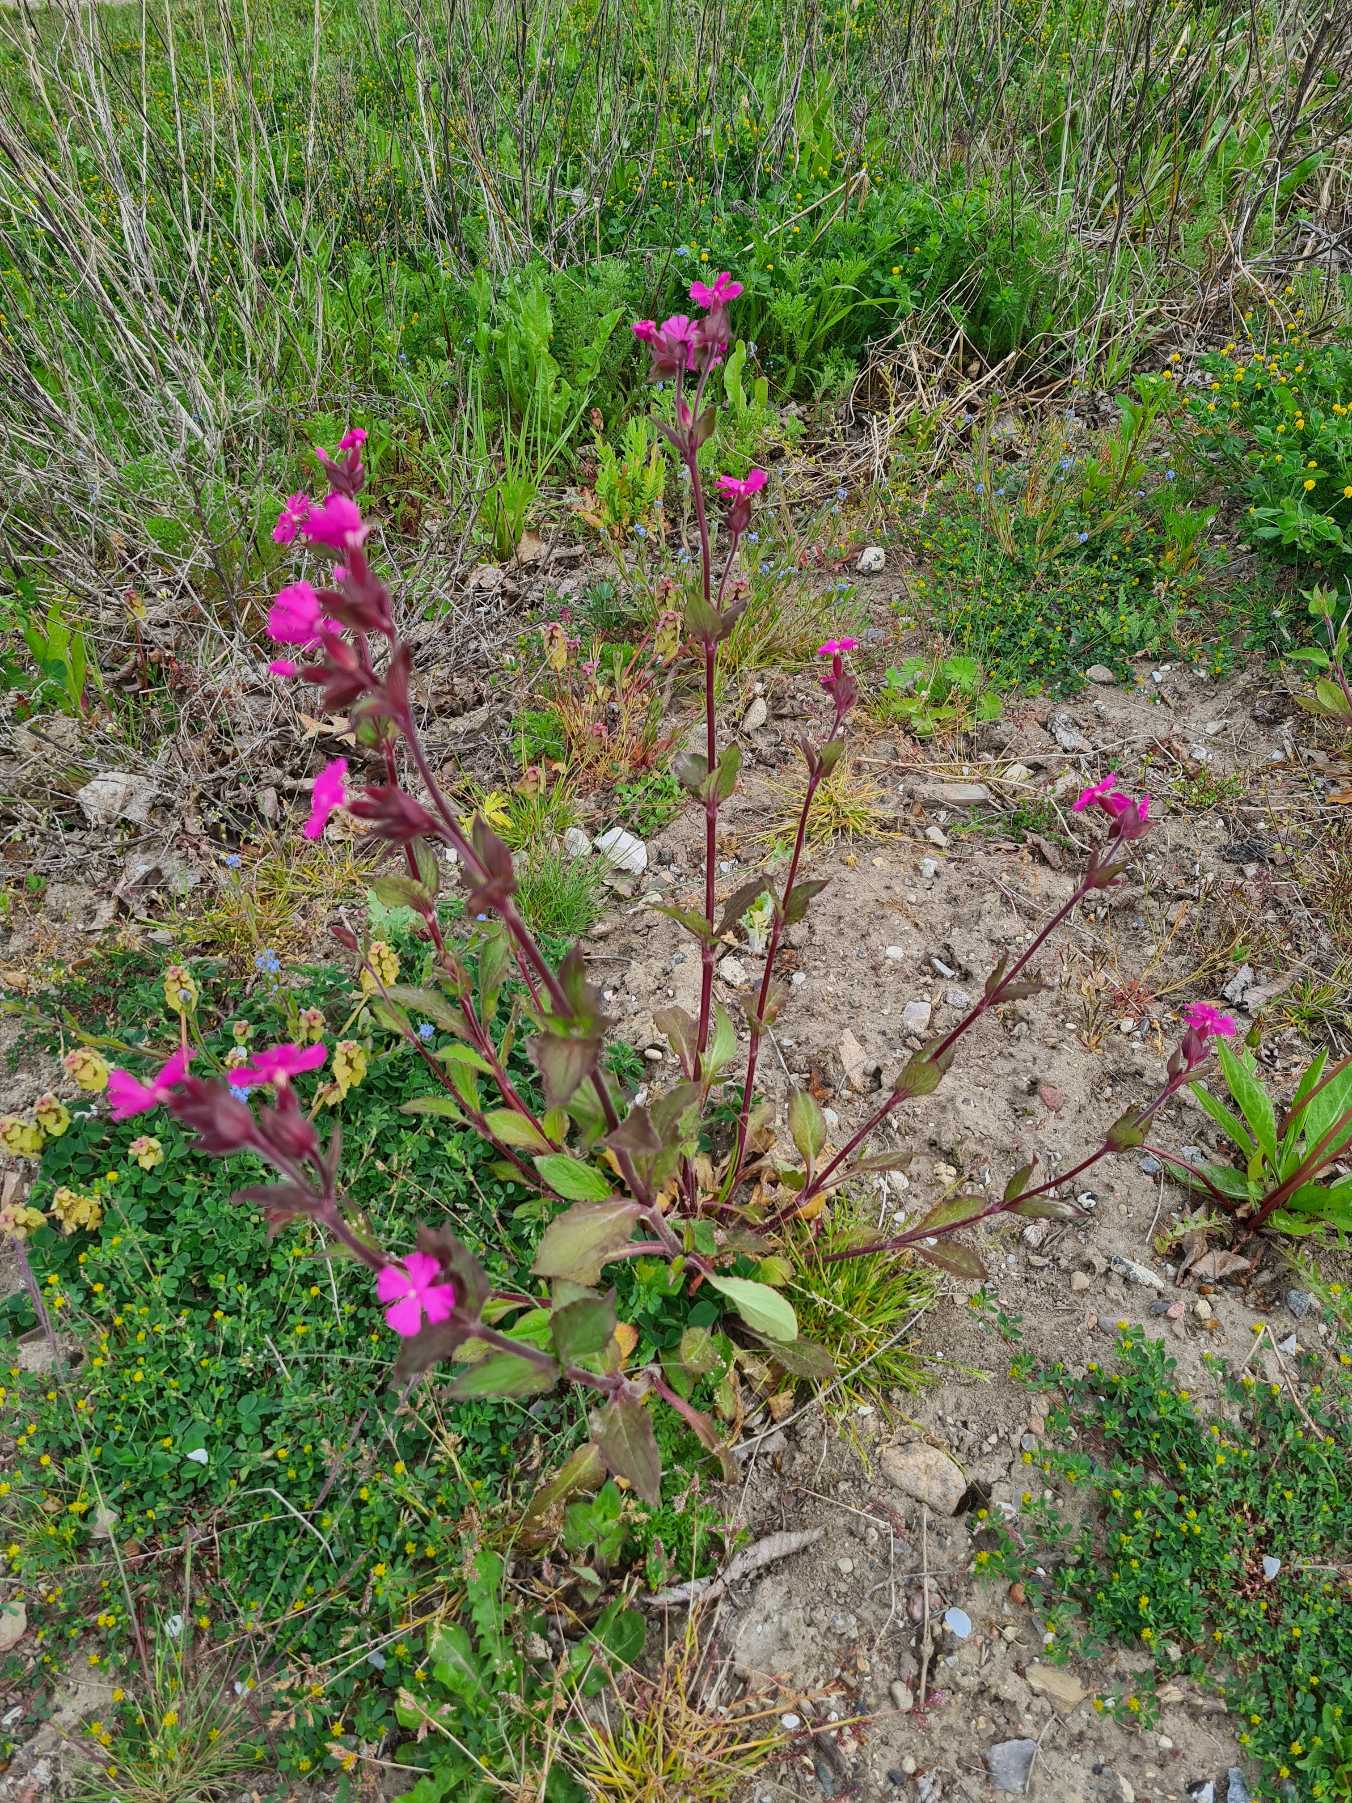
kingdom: Plantae
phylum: Tracheophyta
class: Magnoliopsida
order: Caryophyllales
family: Caryophyllaceae
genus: Silene
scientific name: Silene dioica
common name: Dagpragtstjerne
